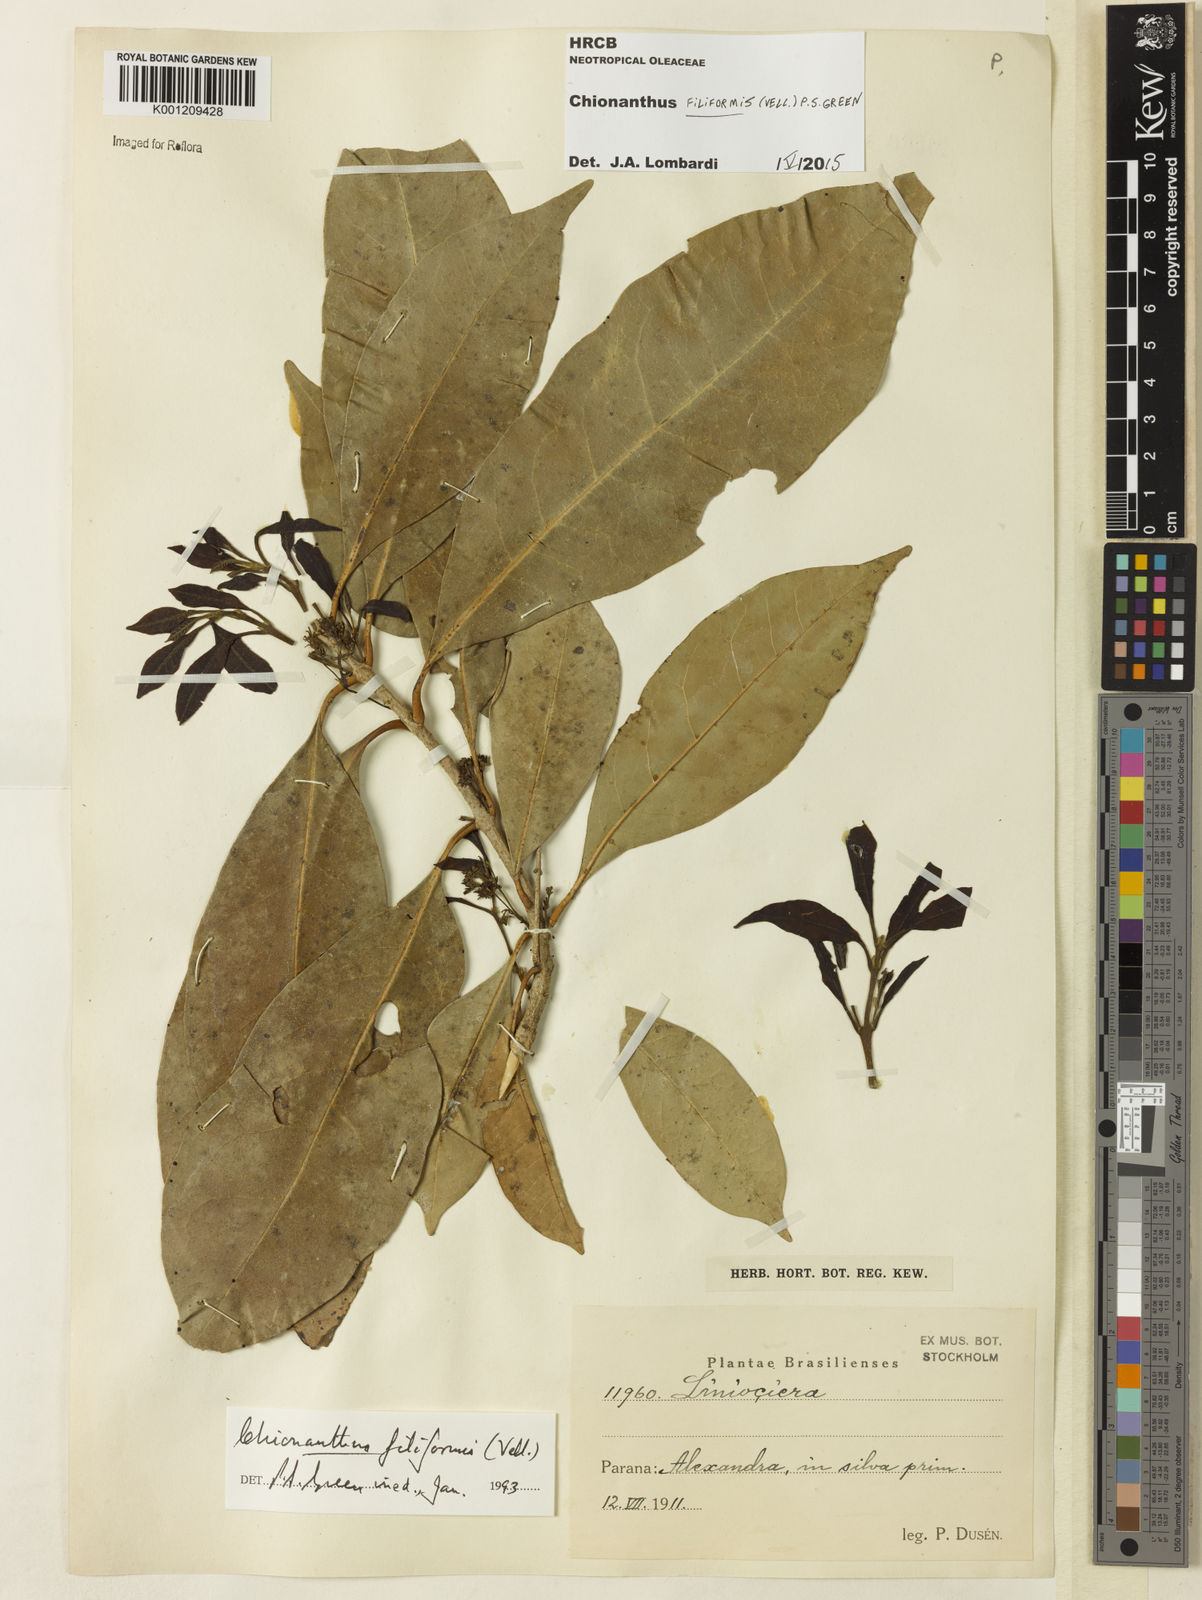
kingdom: Plantae
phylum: Tracheophyta
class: Magnoliopsida
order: Lamiales
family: Oleaceae
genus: Chionanthus
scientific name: Chionanthus filiformis
